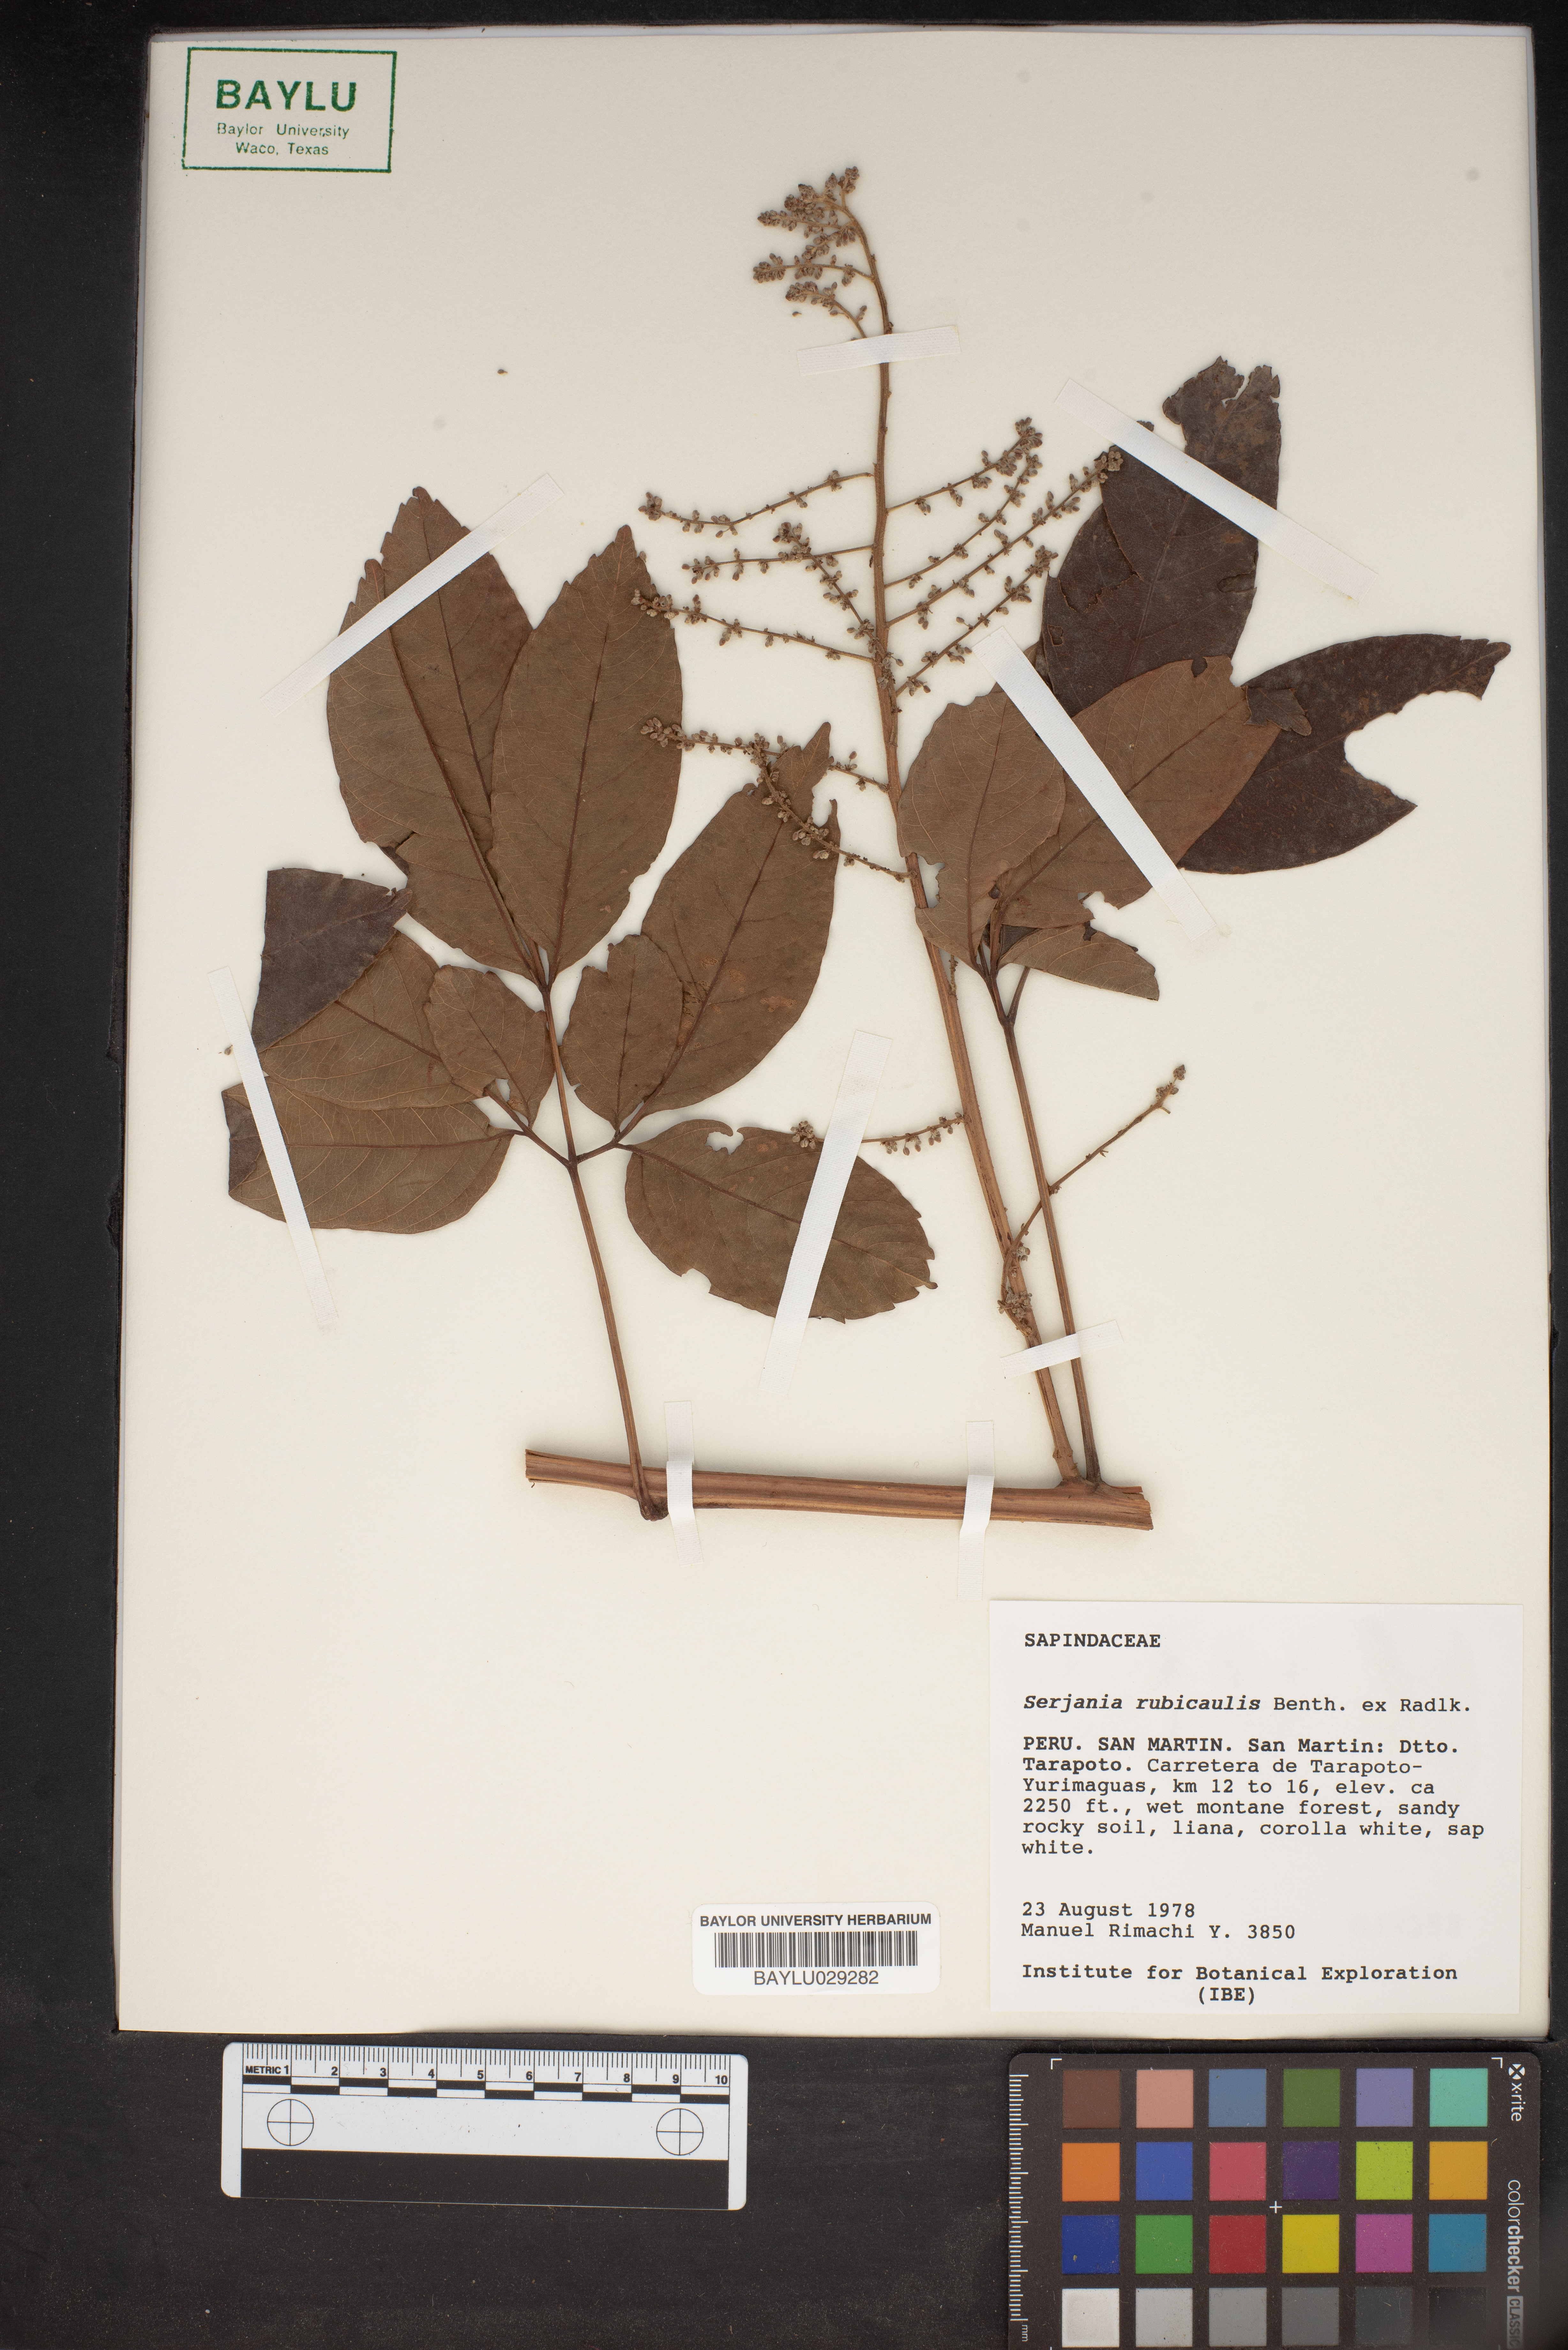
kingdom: Plantae
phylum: Tracheophyta
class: Magnoliopsida
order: Sapindales
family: Sapindaceae
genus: Serjania
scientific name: Serjania rubicaulis
